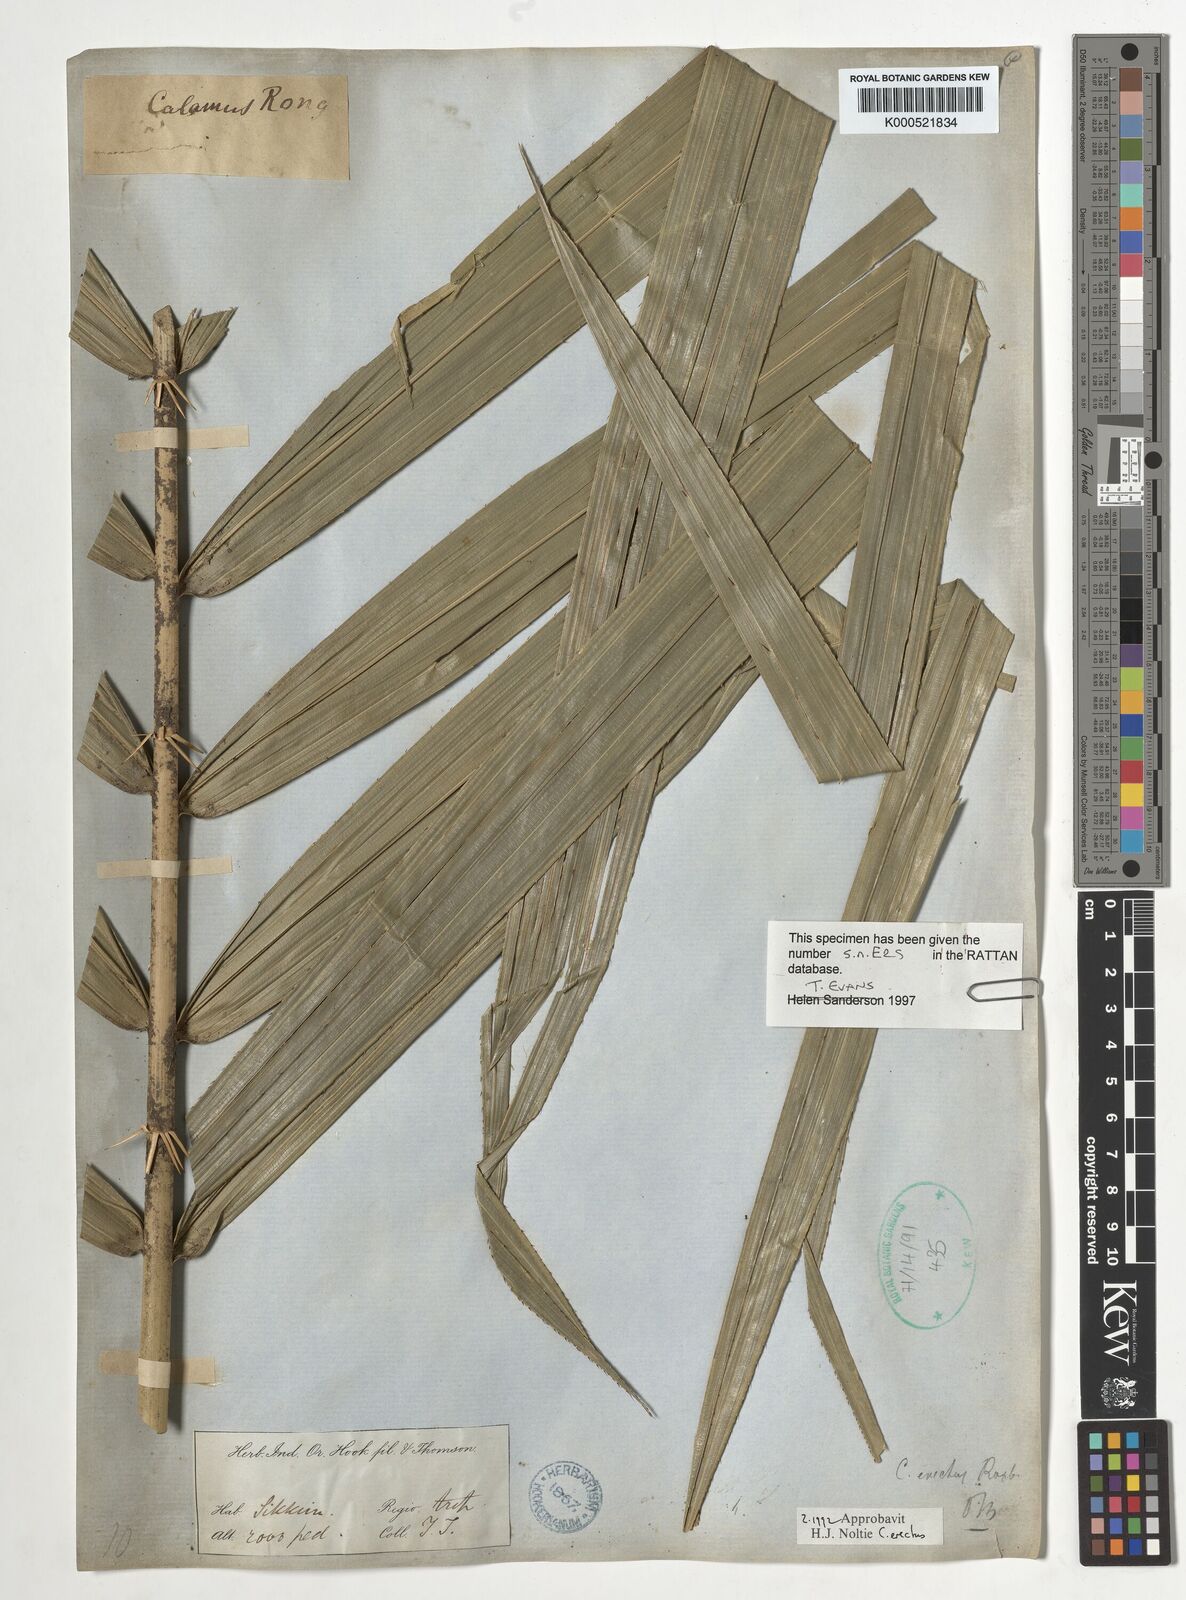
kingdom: Plantae
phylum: Tracheophyta
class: Liliopsida
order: Arecales
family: Arecaceae
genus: Calamus
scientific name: Calamus erectus
